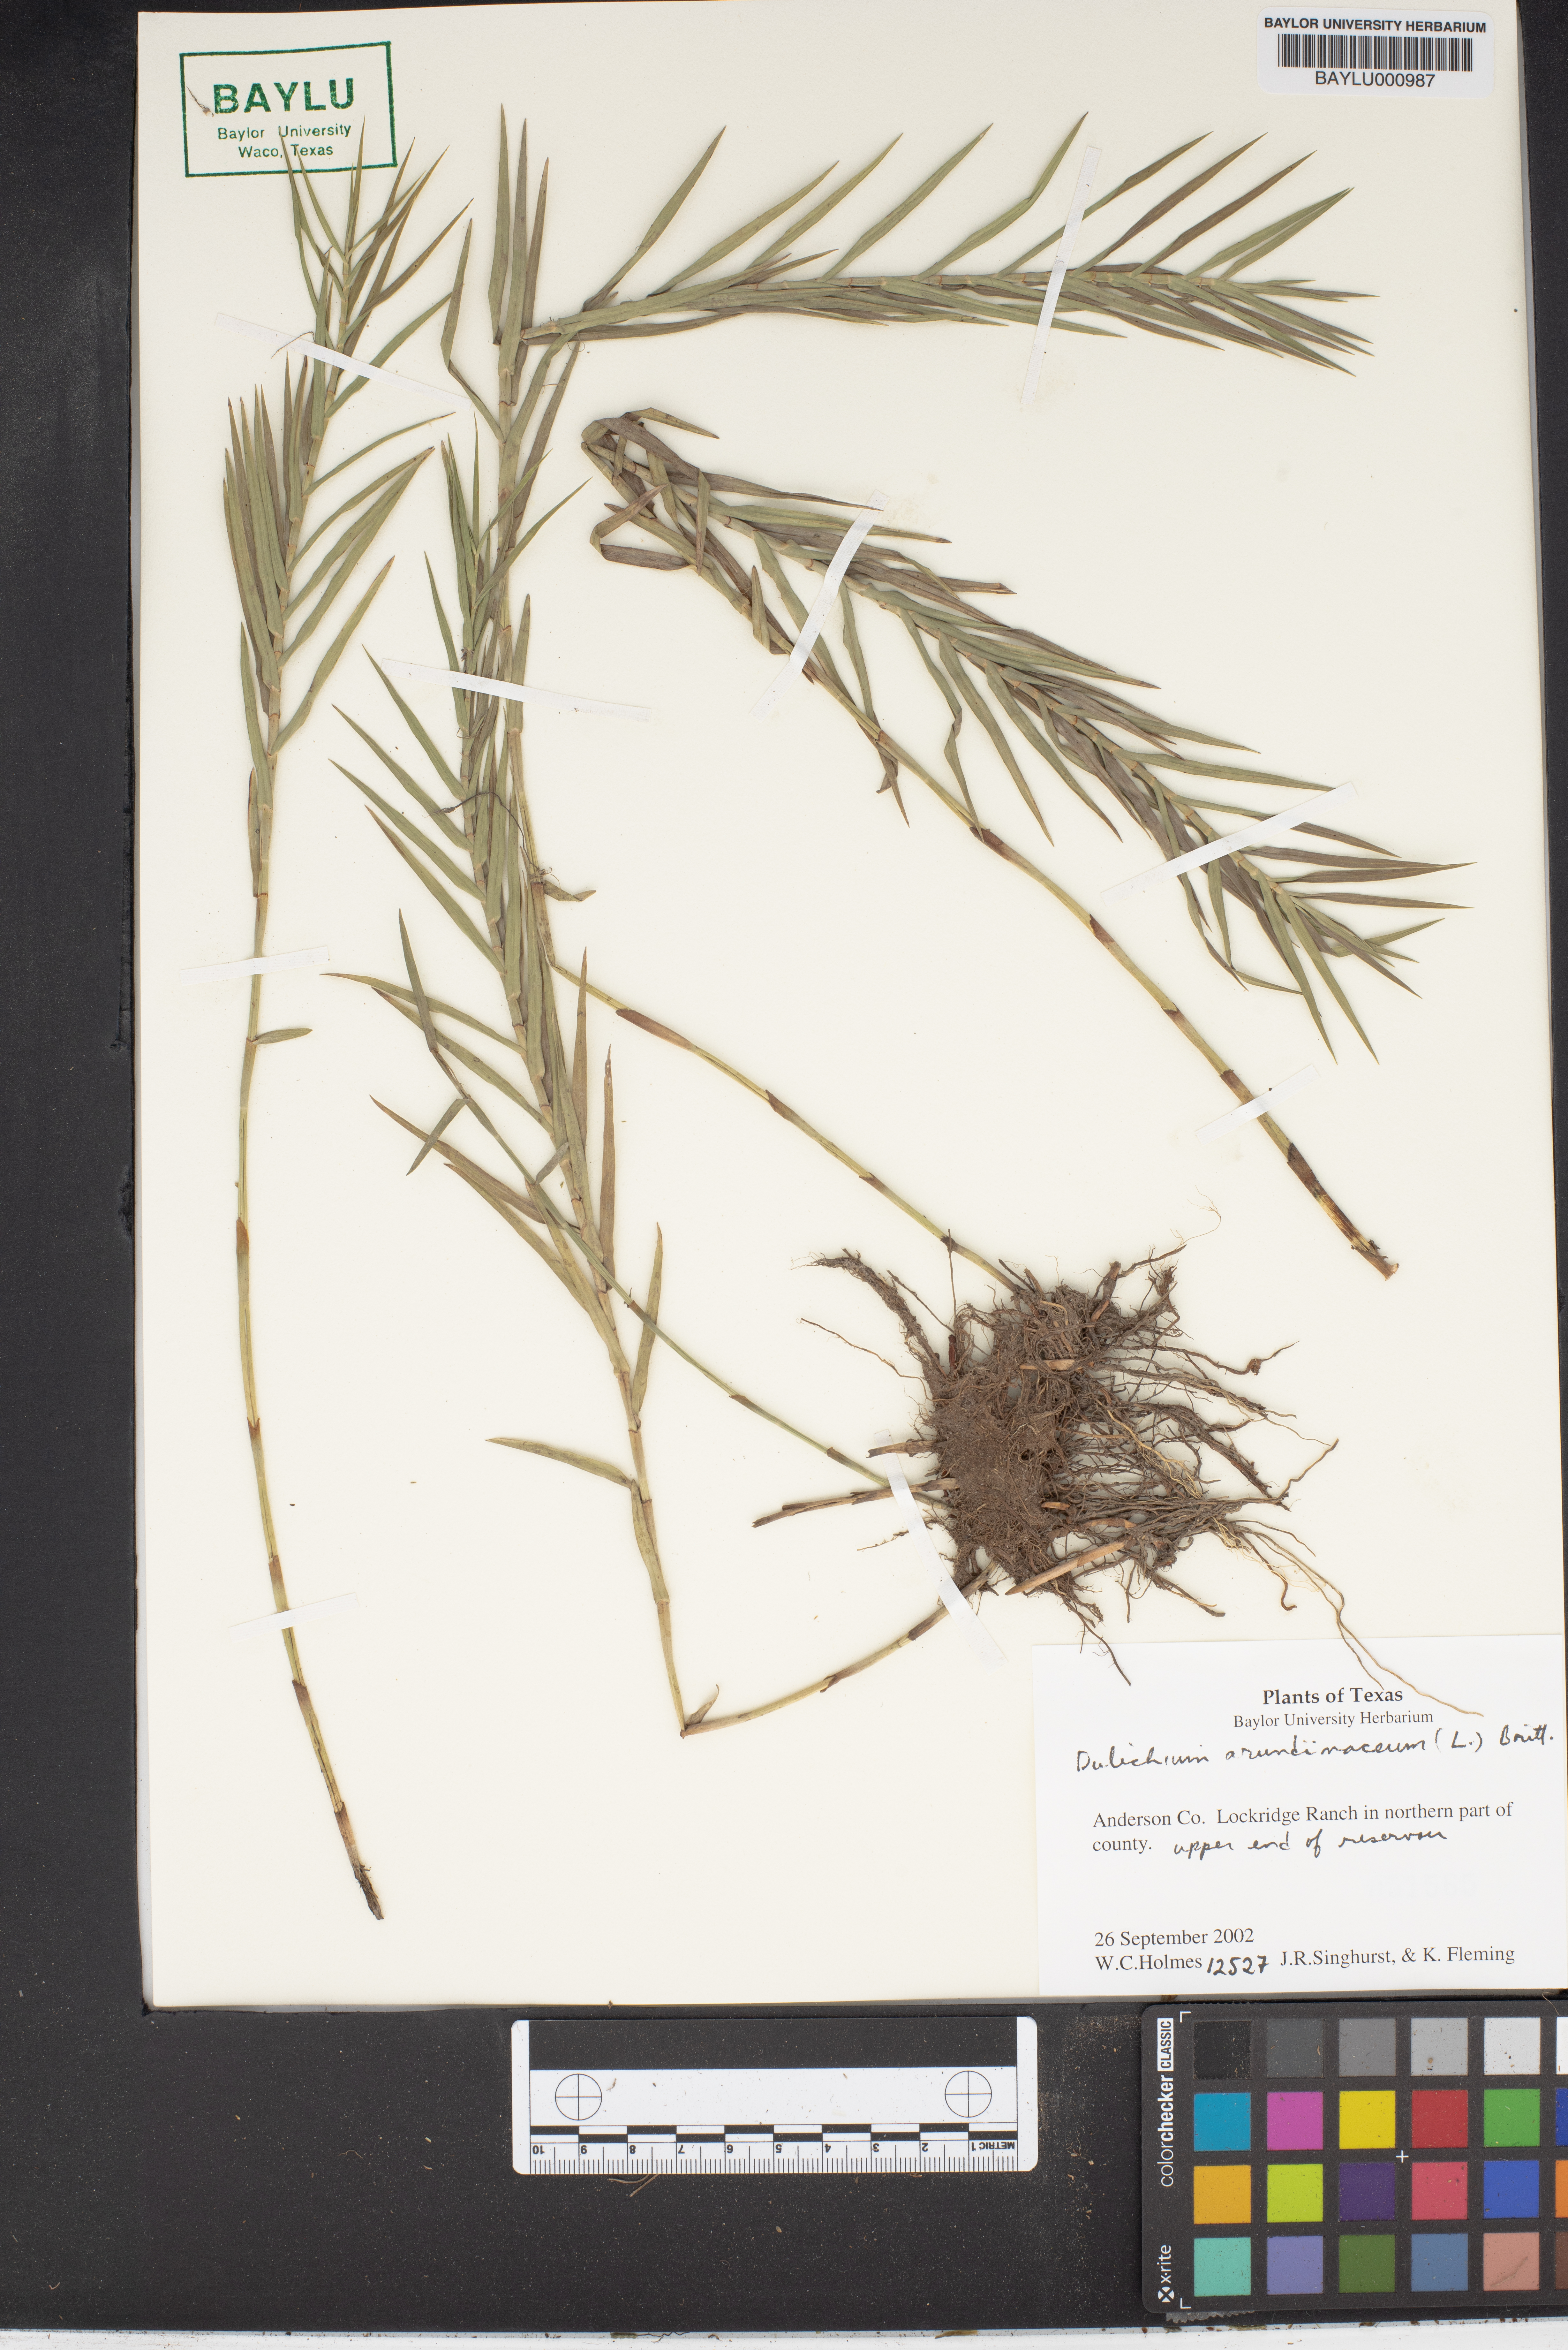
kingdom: Plantae
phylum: Tracheophyta
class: Liliopsida
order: Poales
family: Cyperaceae
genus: Dulichium
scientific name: Dulichium arundinaceum
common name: Three-way sedge
